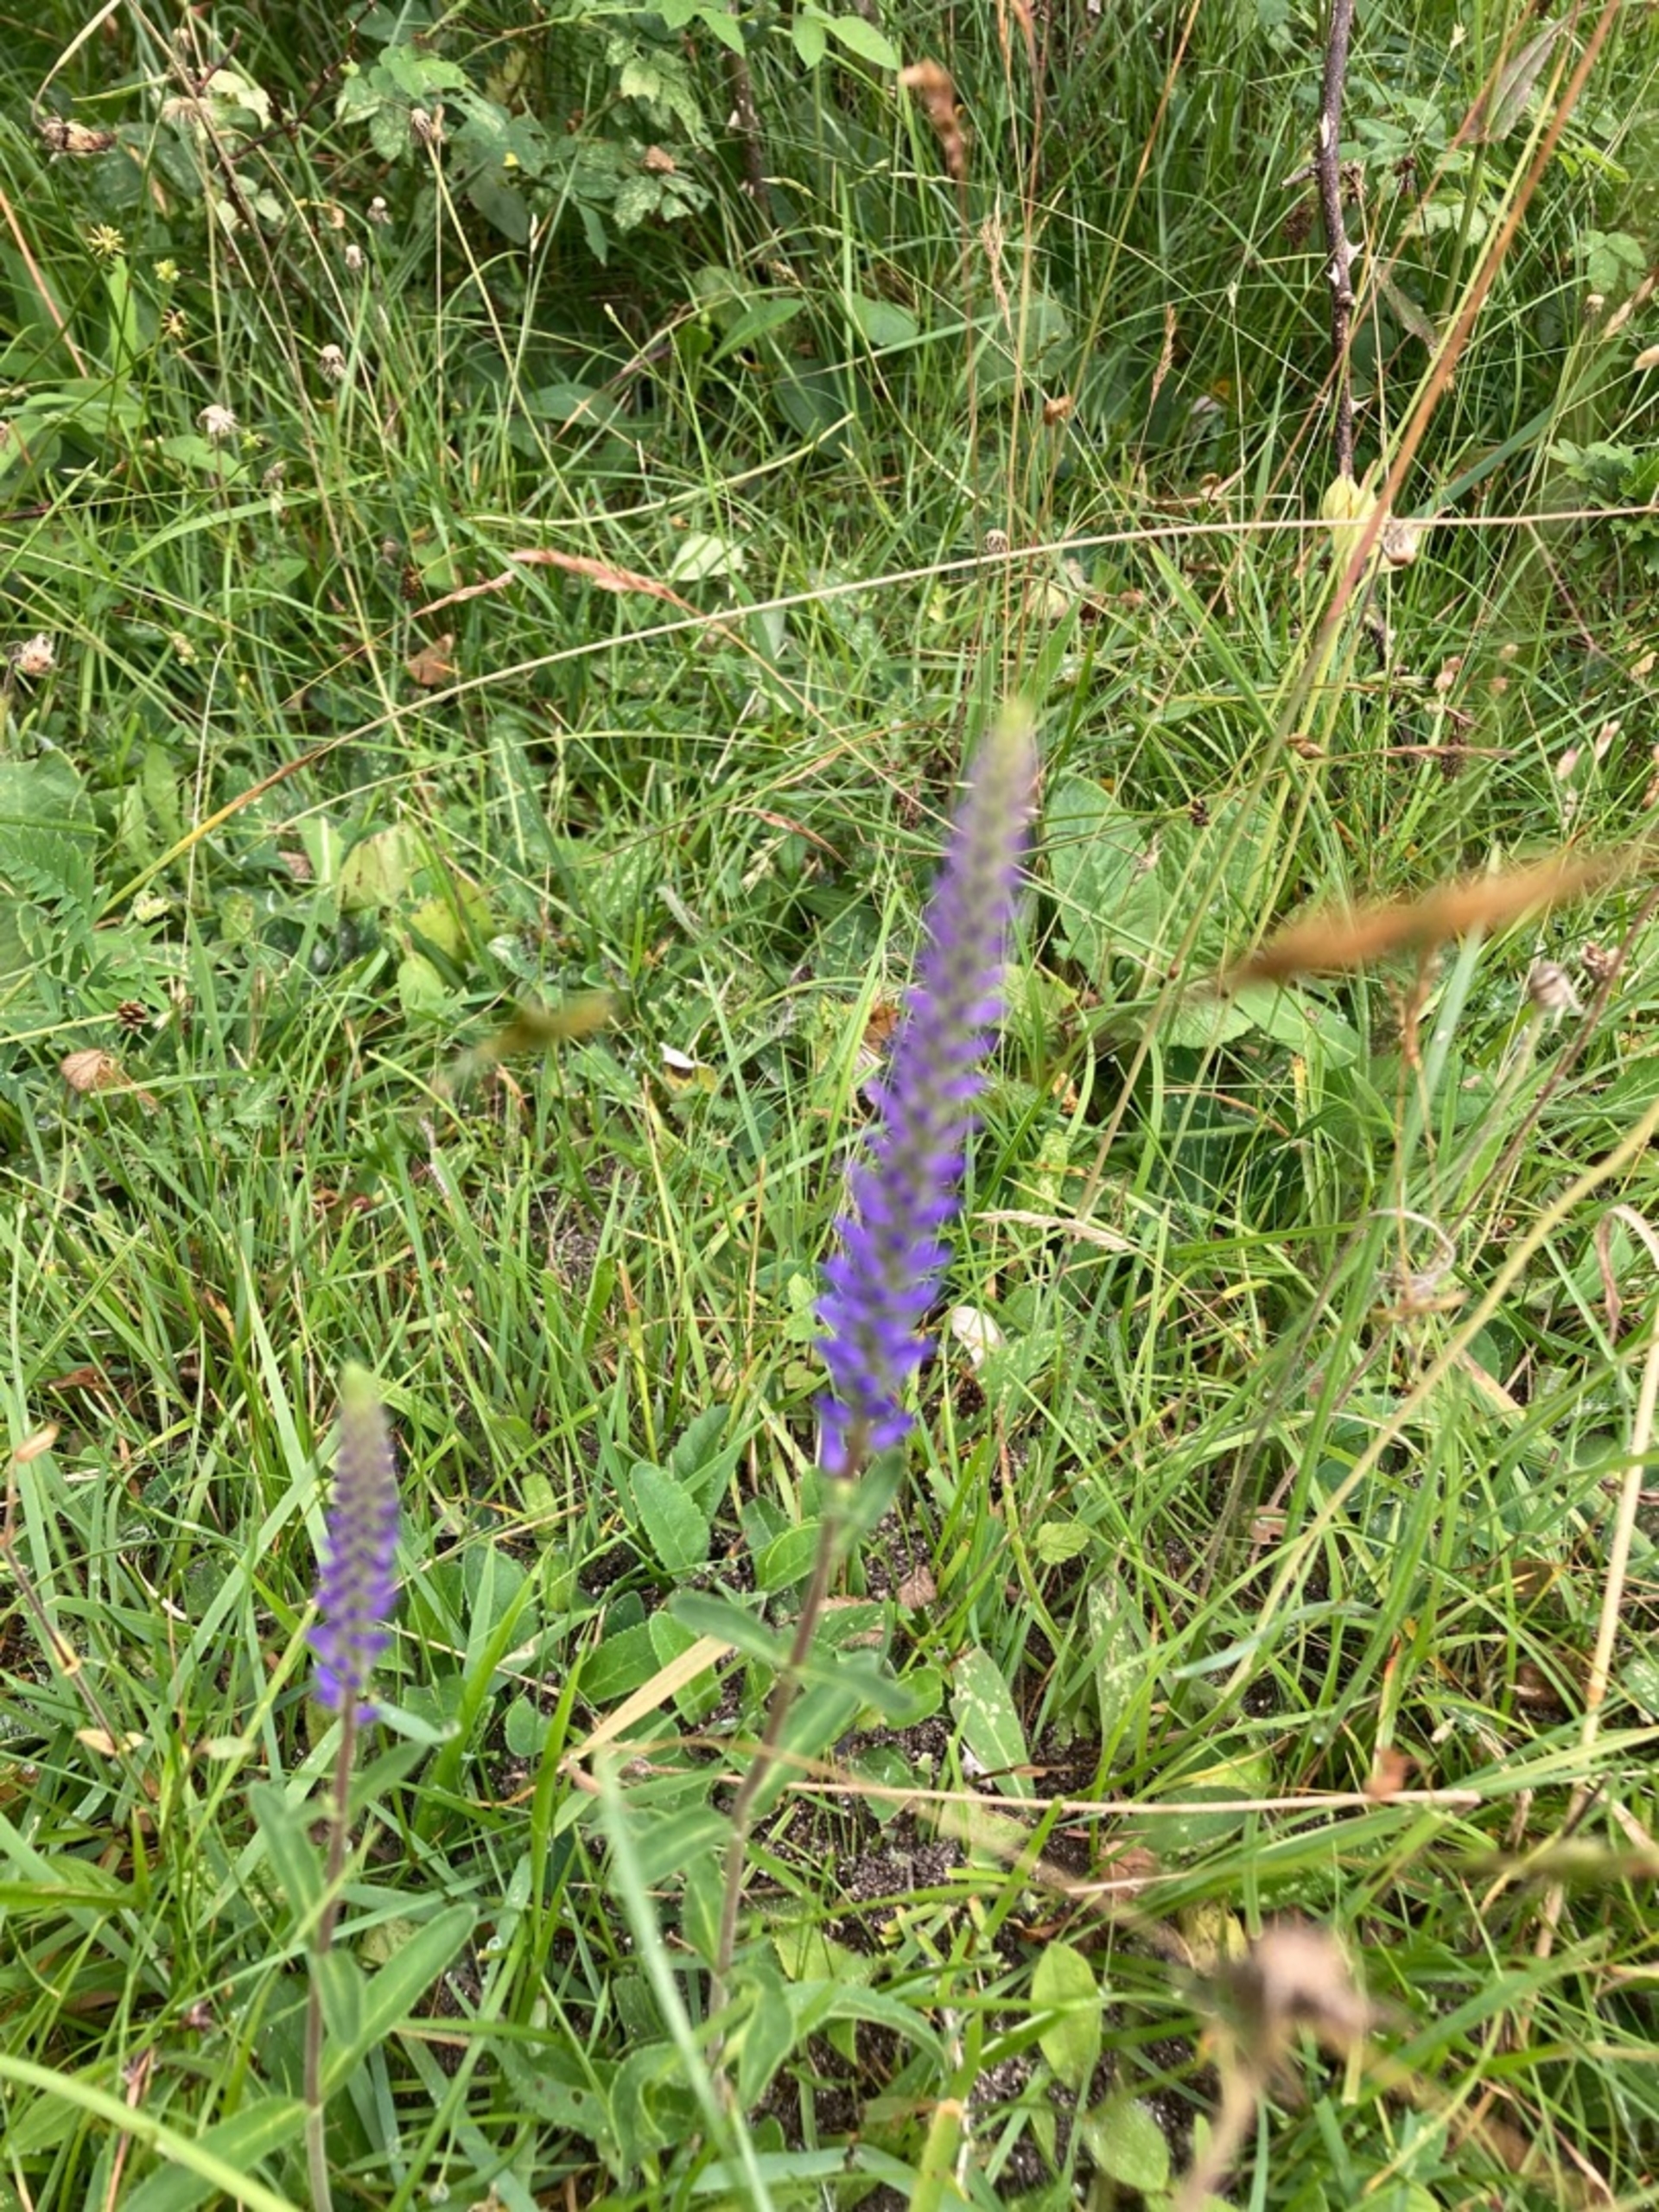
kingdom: Plantae
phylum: Tracheophyta
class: Magnoliopsida
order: Lamiales
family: Plantaginaceae
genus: Veronica
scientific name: Veronica spicata
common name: Aks-ærenpris
